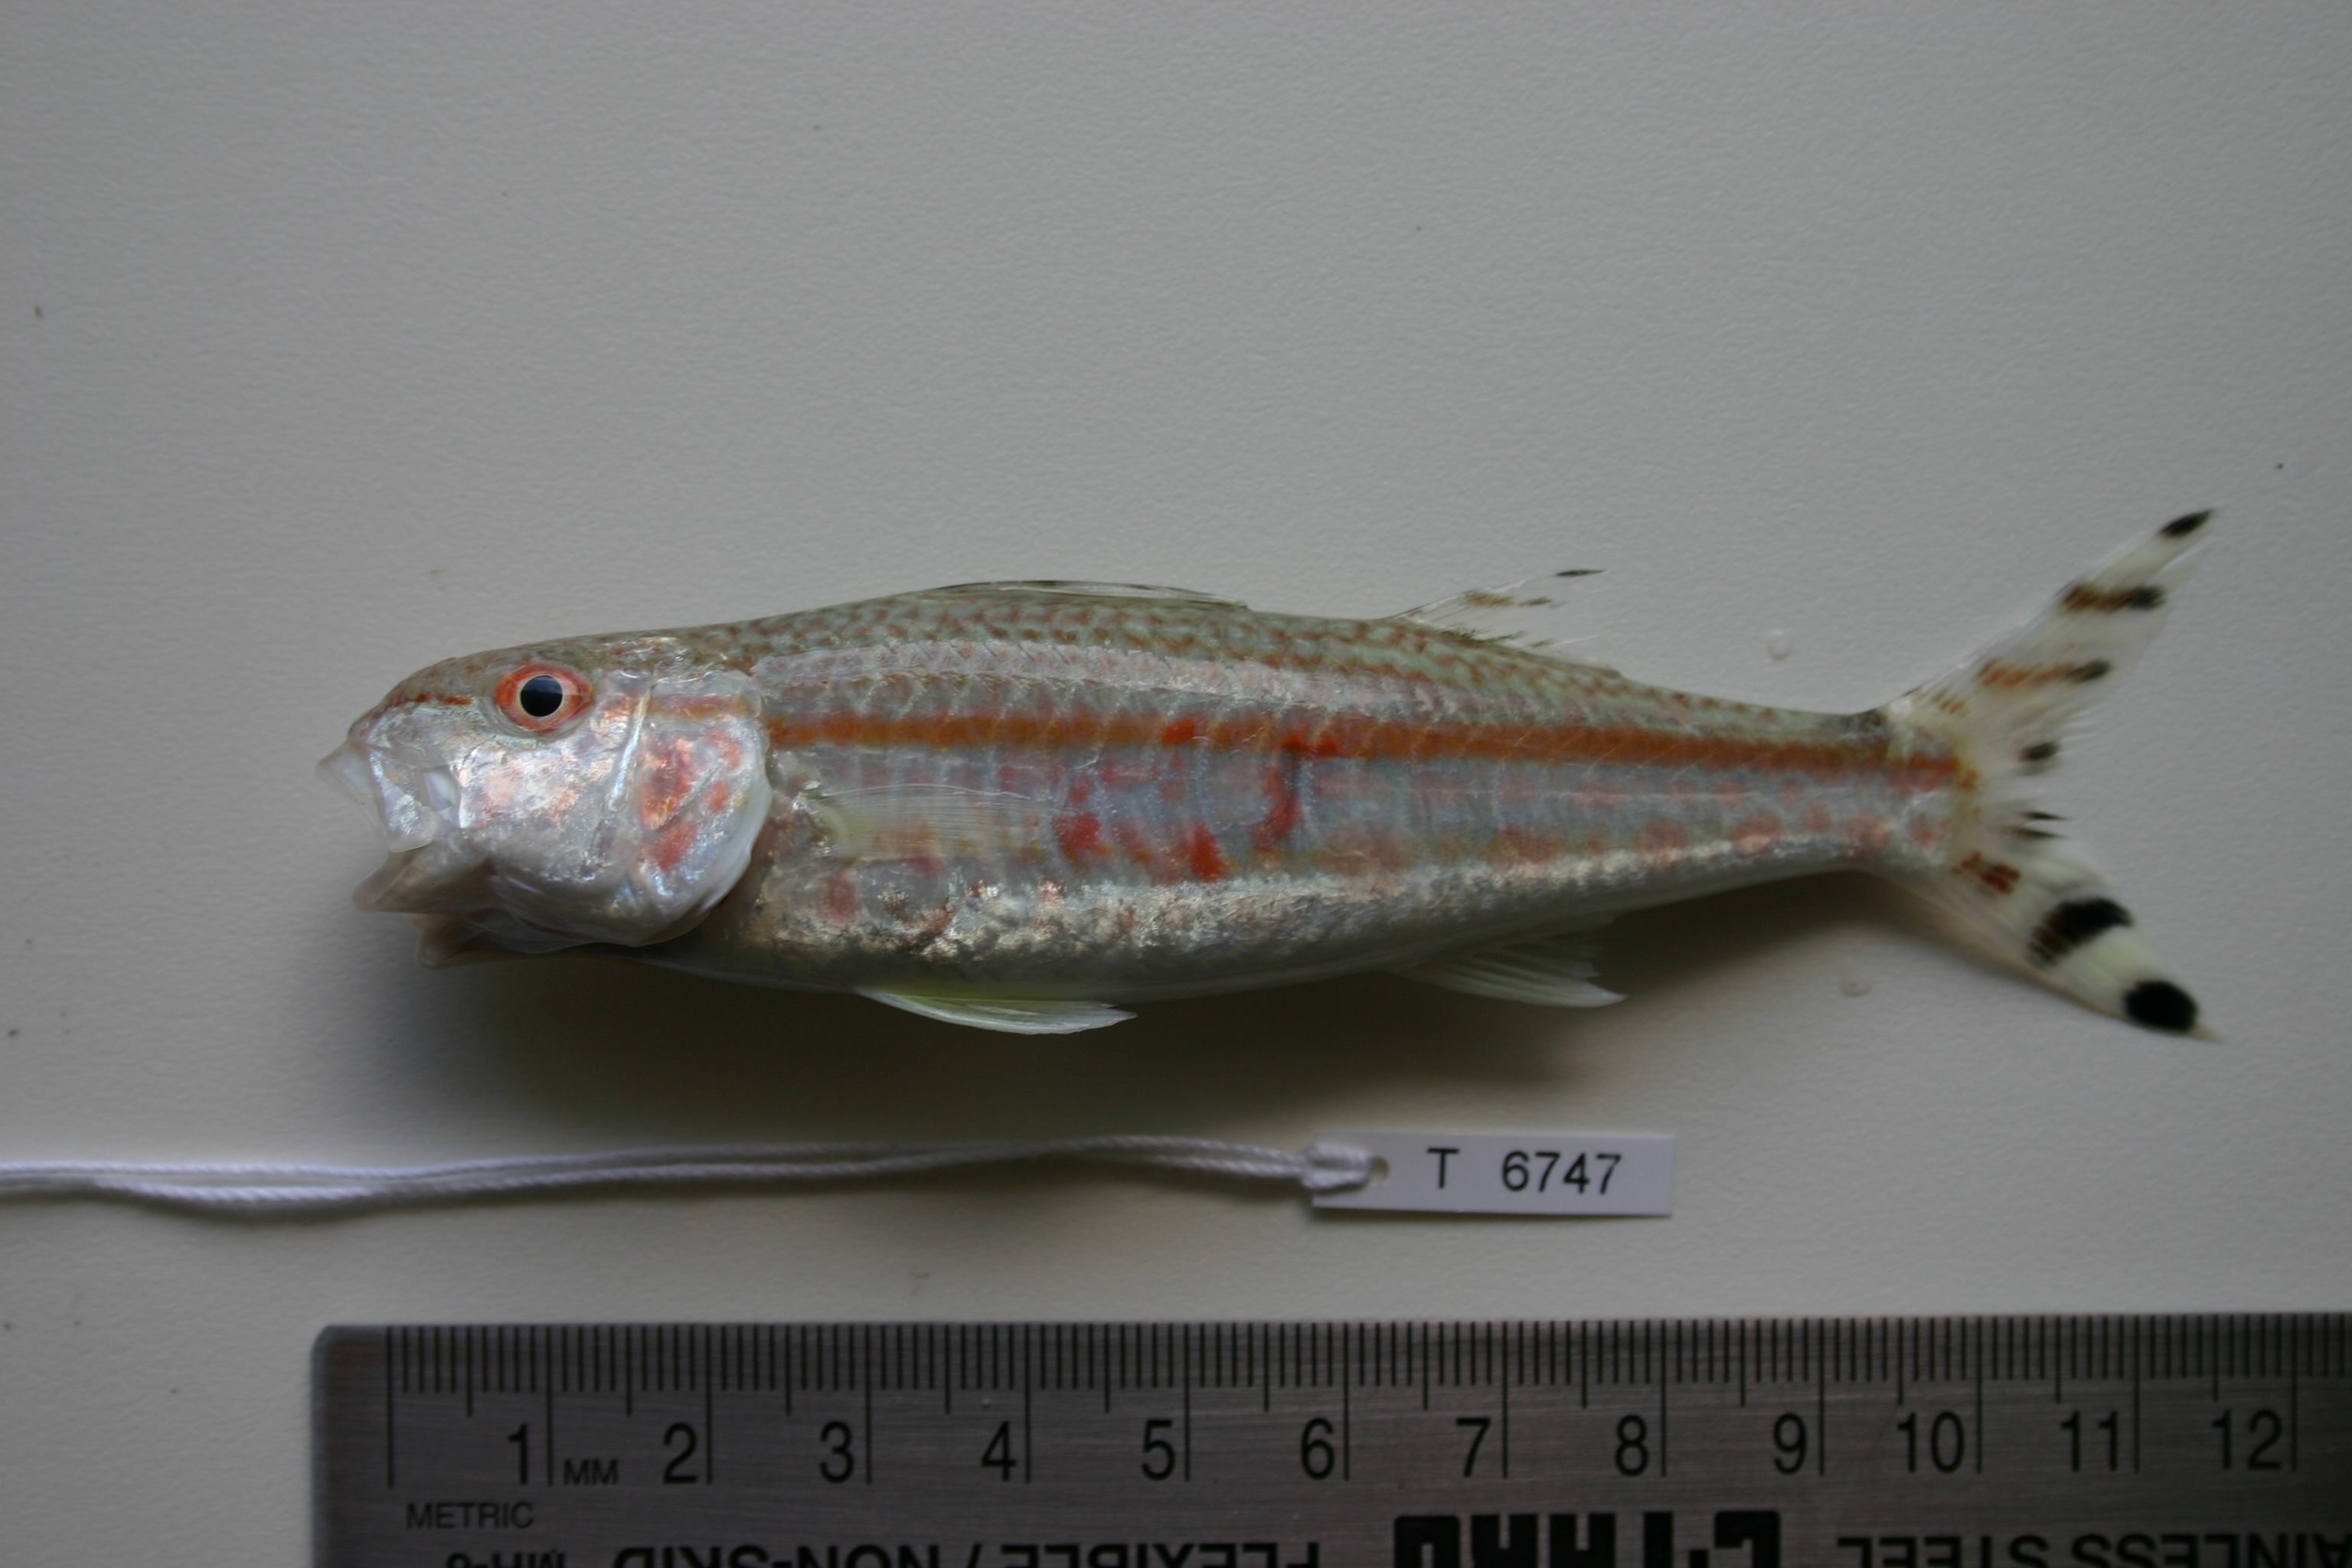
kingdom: Animalia
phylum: Chordata
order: Perciformes
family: Mullidae
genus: Upeneus
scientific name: Upeneus taeniopterus
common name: Band-tail goatfish
